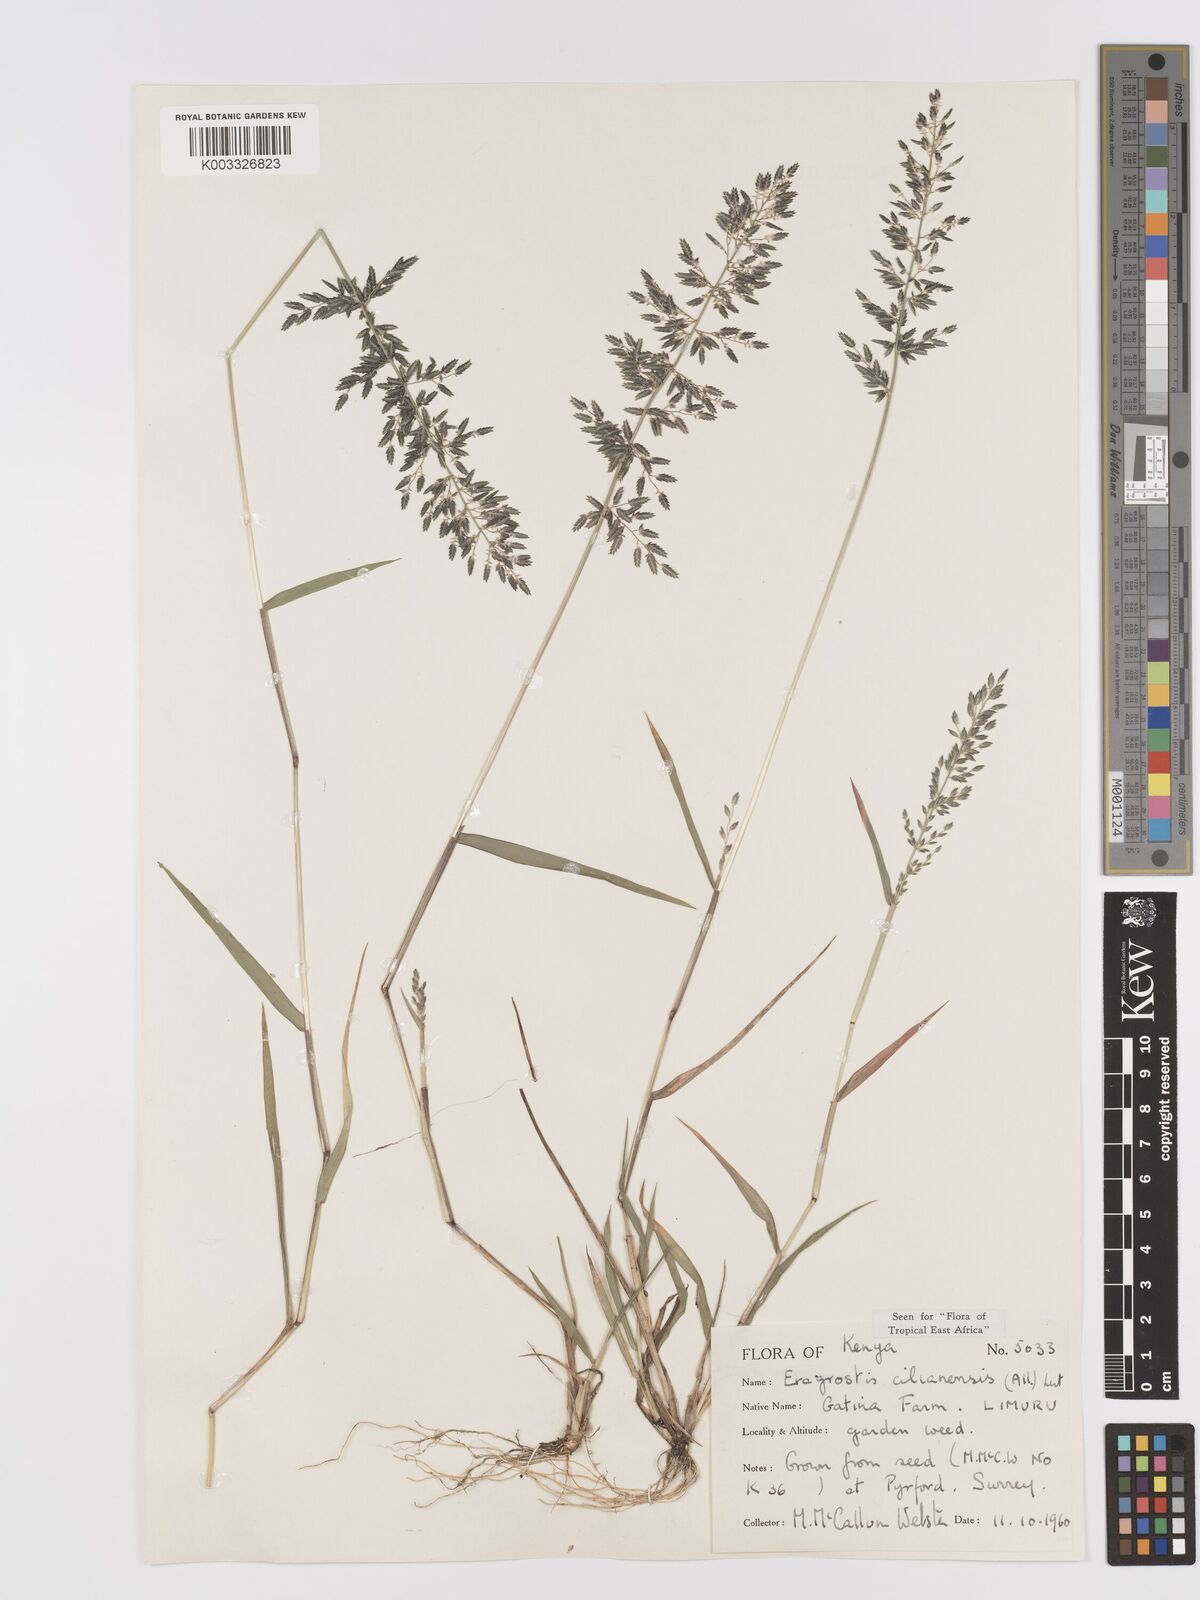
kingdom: Plantae
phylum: Tracheophyta
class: Liliopsida
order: Poales
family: Poaceae
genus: Eragrostis
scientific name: Eragrostis cilianensis
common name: Stinkgrass
